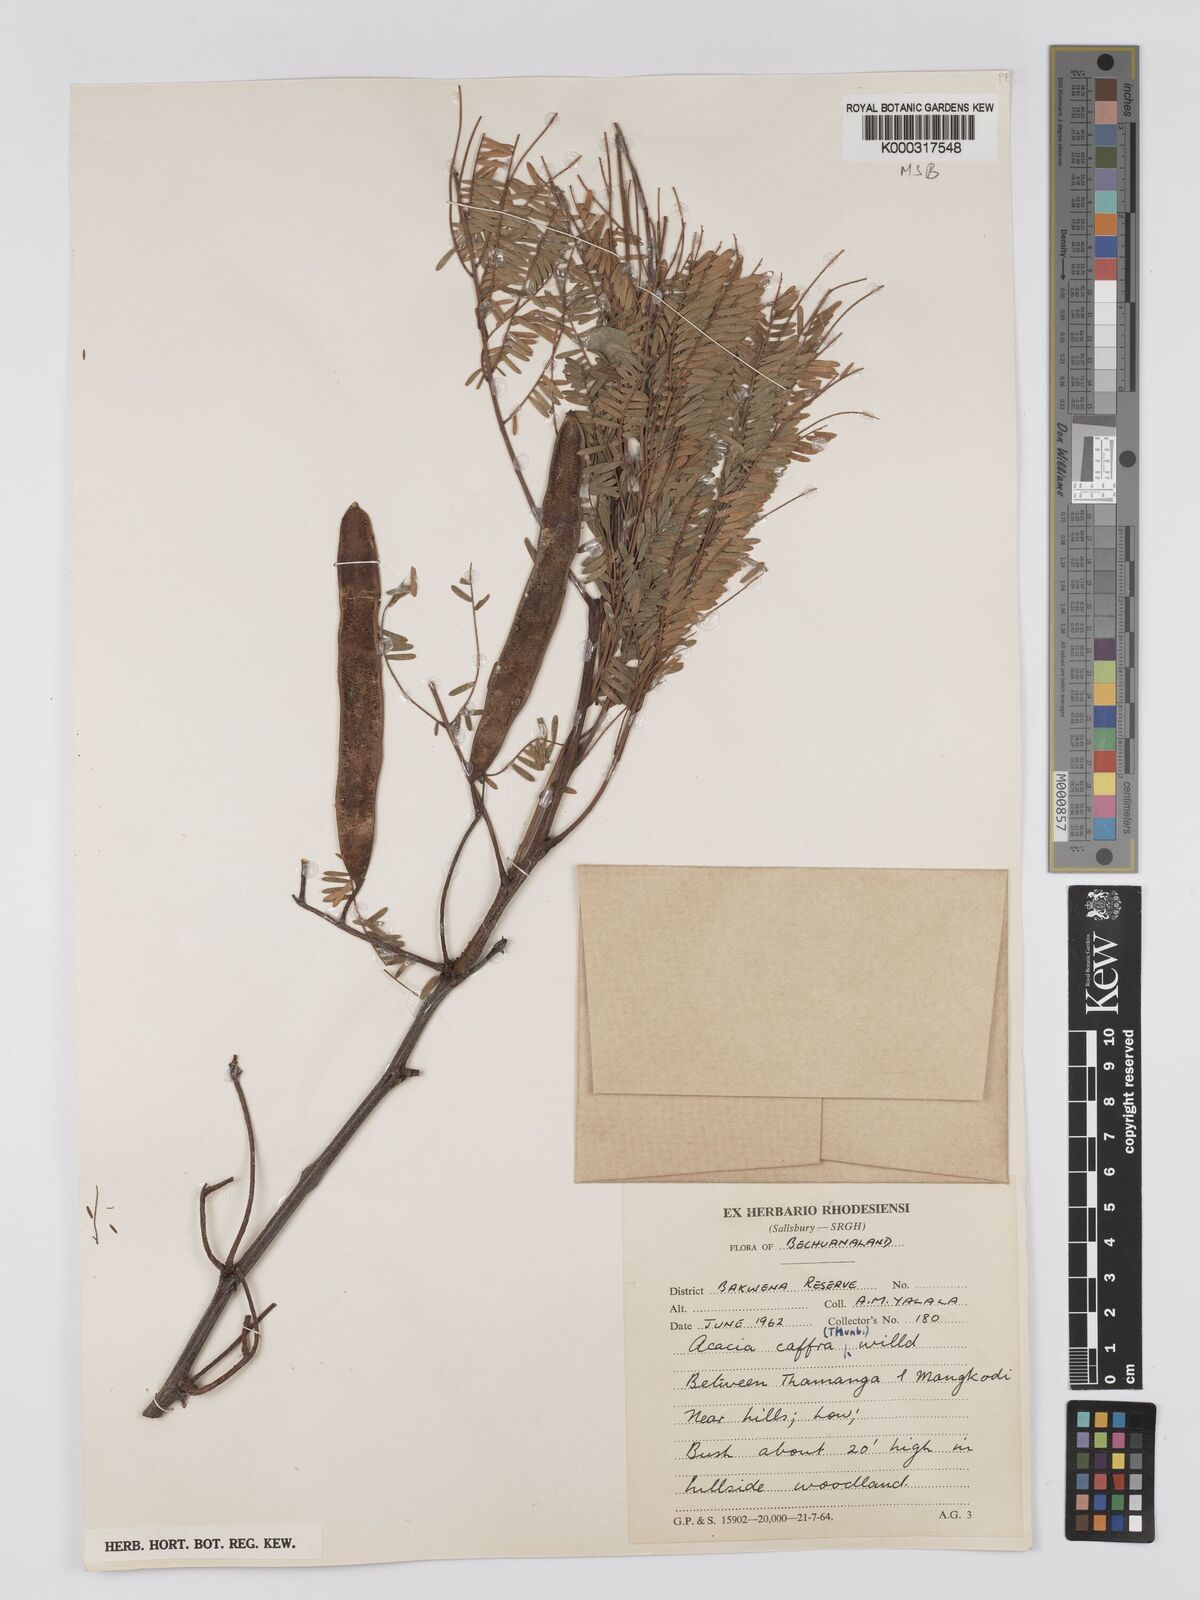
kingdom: Plantae
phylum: Tracheophyta
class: Magnoliopsida
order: Fabales
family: Fabaceae
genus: Senegalia
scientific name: Senegalia caffra
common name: Cat thorn
